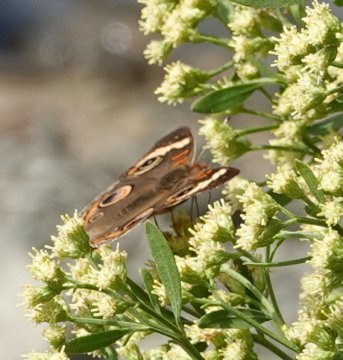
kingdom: Animalia
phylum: Arthropoda
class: Insecta
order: Lepidoptera
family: Nymphalidae
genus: Junonia
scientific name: Junonia coenia
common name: Common Buckeye
